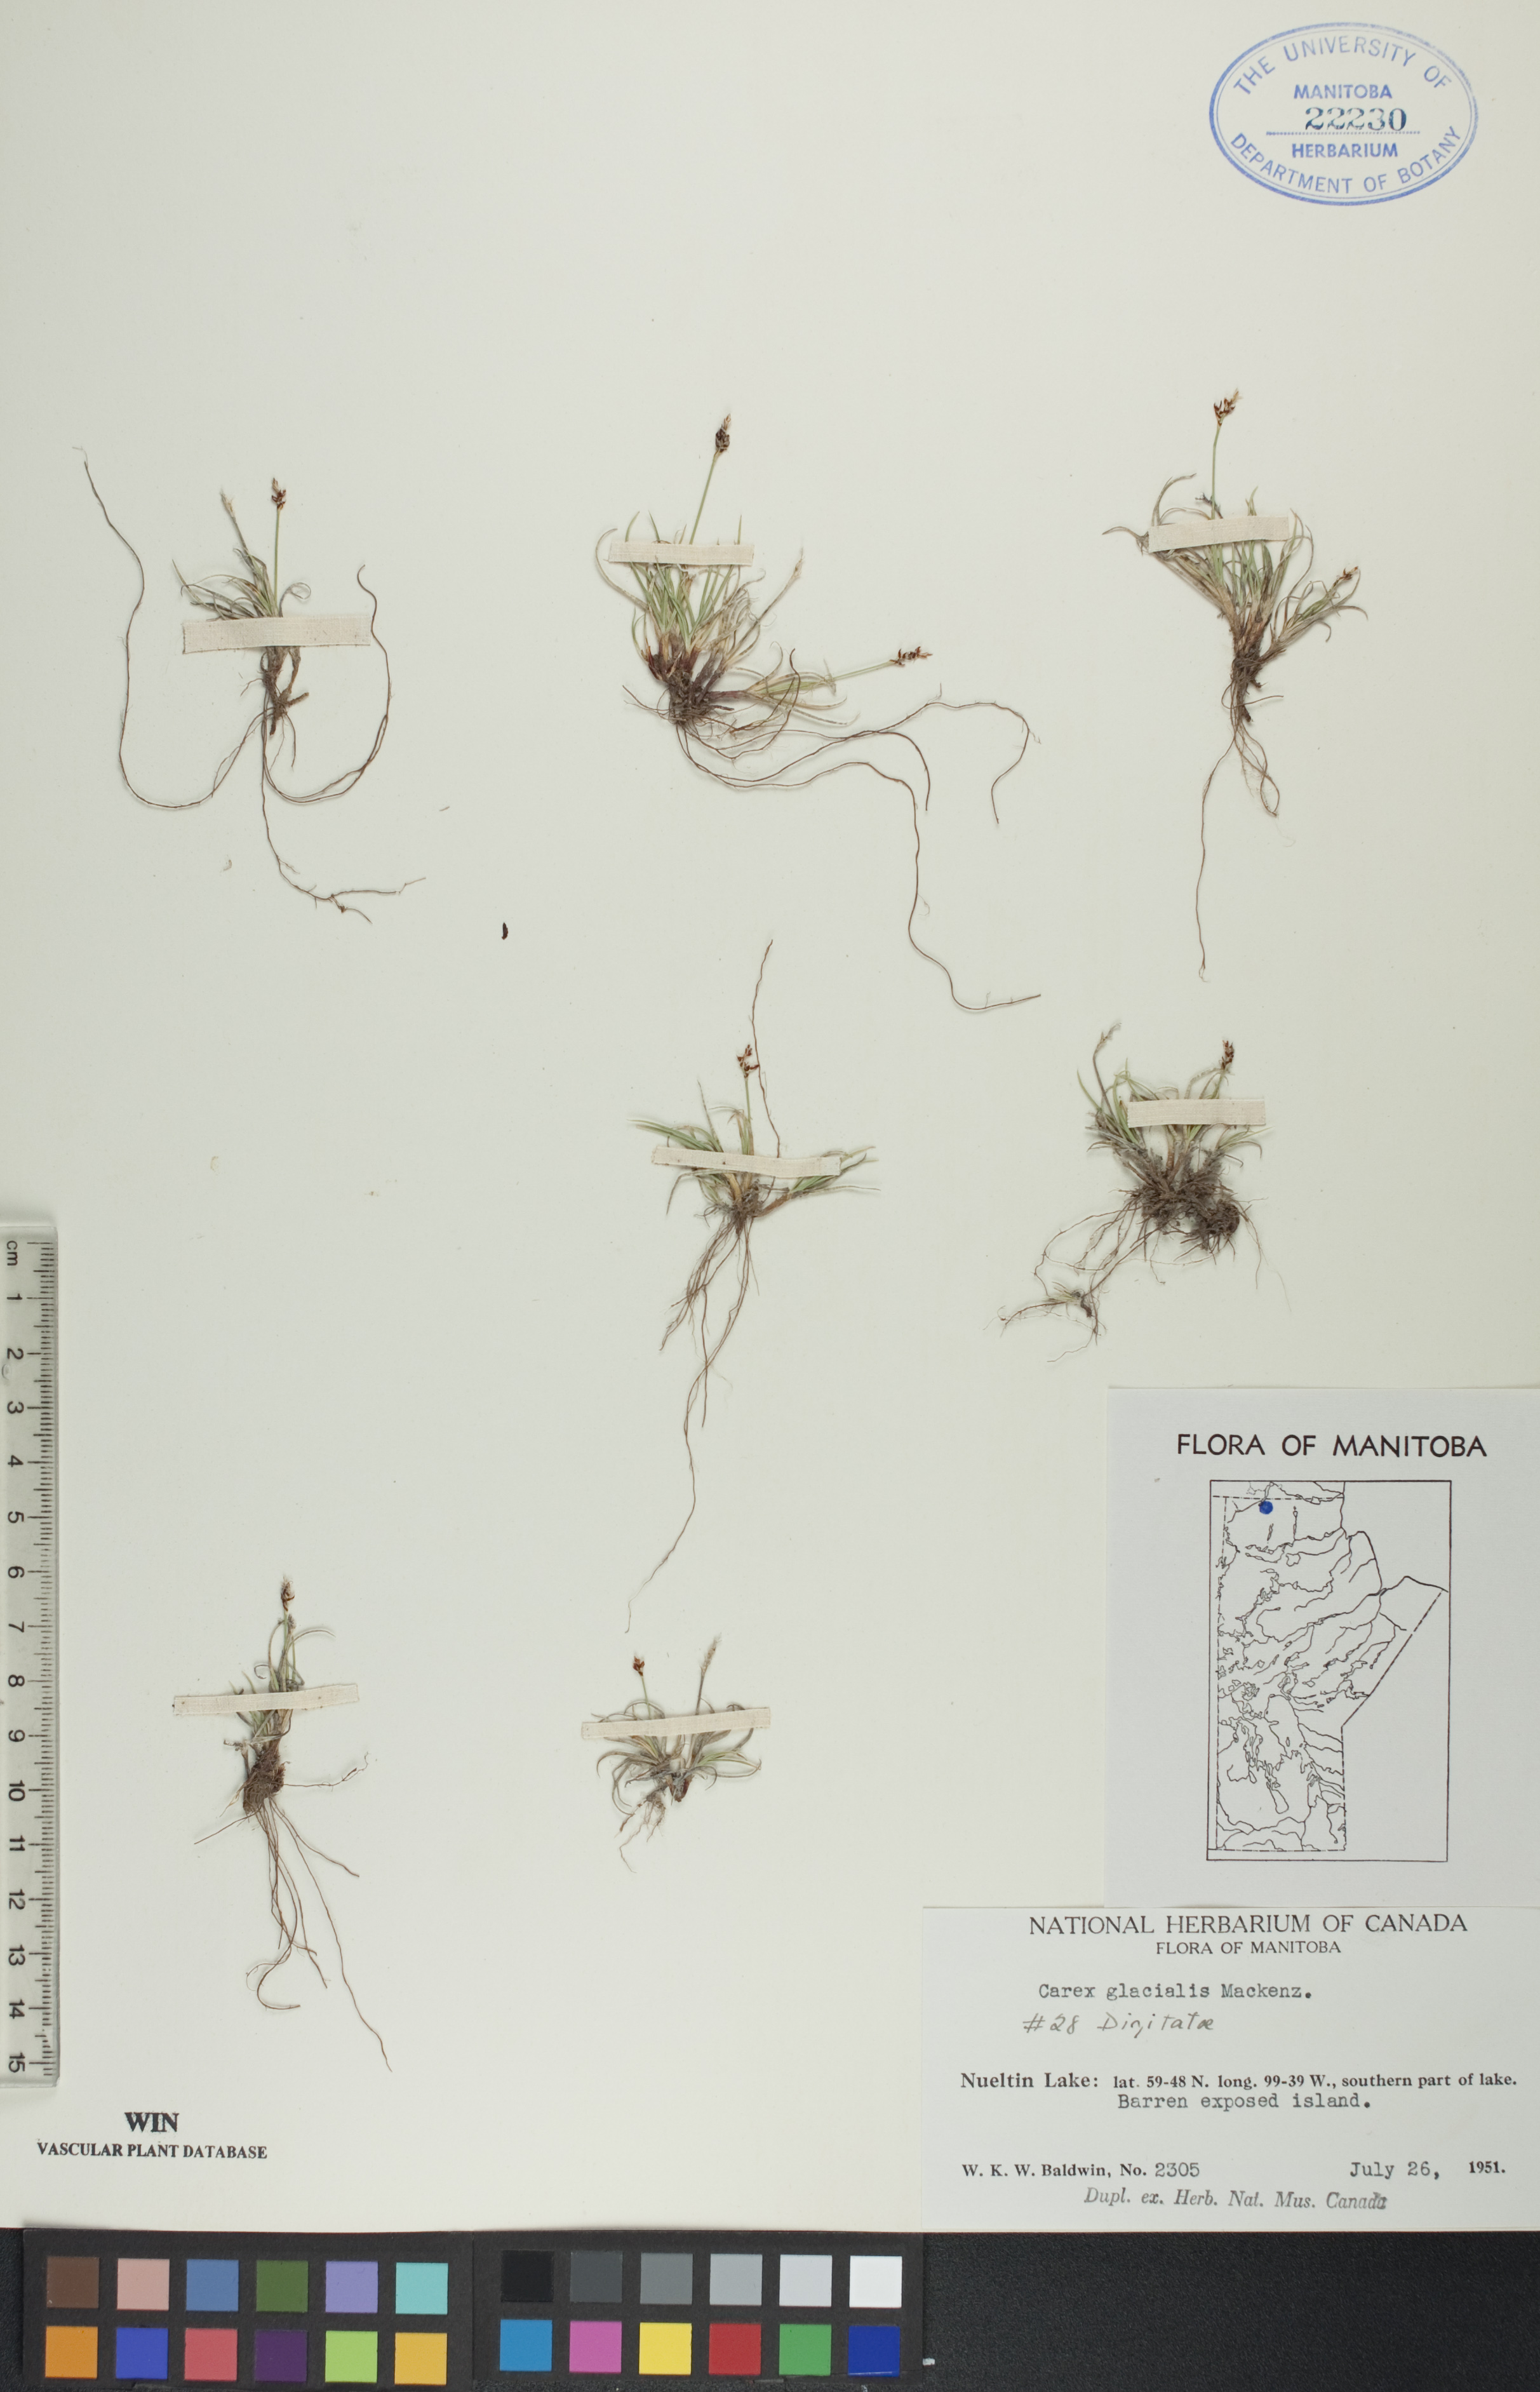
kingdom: Plantae
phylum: Tracheophyta
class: Liliopsida
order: Poales
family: Cyperaceae
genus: Carex
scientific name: Carex glacialis
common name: Newfoundland sedge
